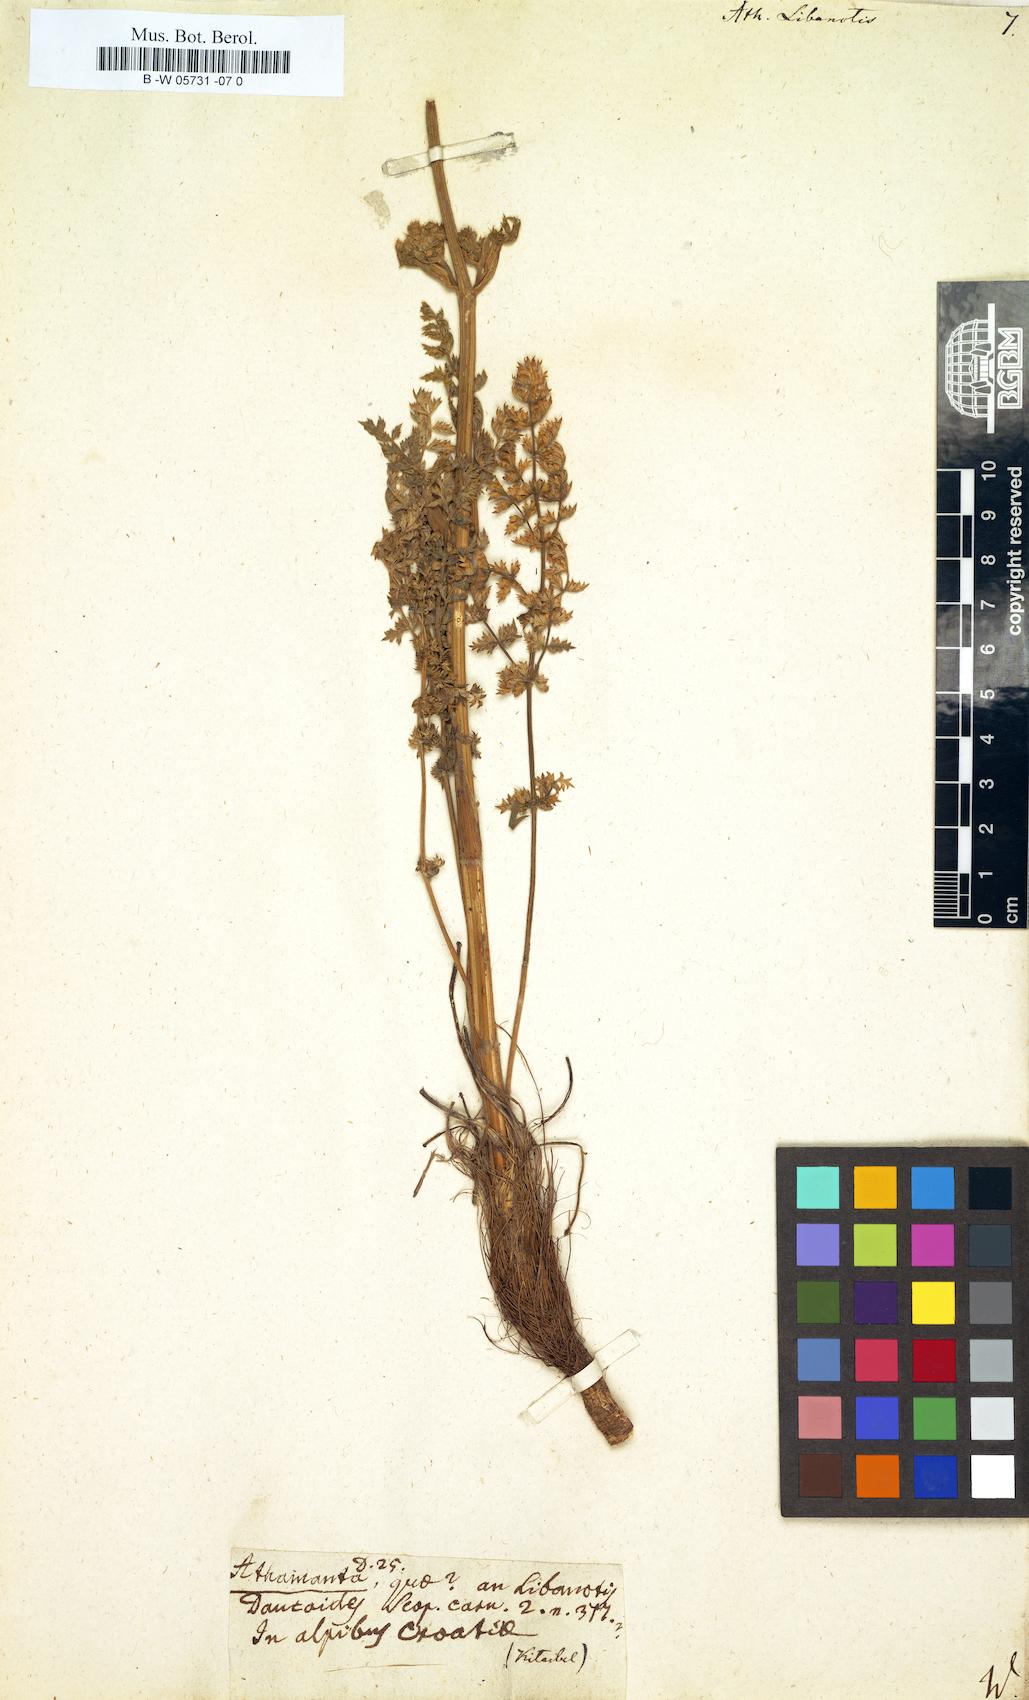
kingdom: Plantae
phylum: Tracheophyta
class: Magnoliopsida
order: Apiales
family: Apiaceae
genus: Seseli
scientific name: Seseli libanotis
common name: Mooncarrot
